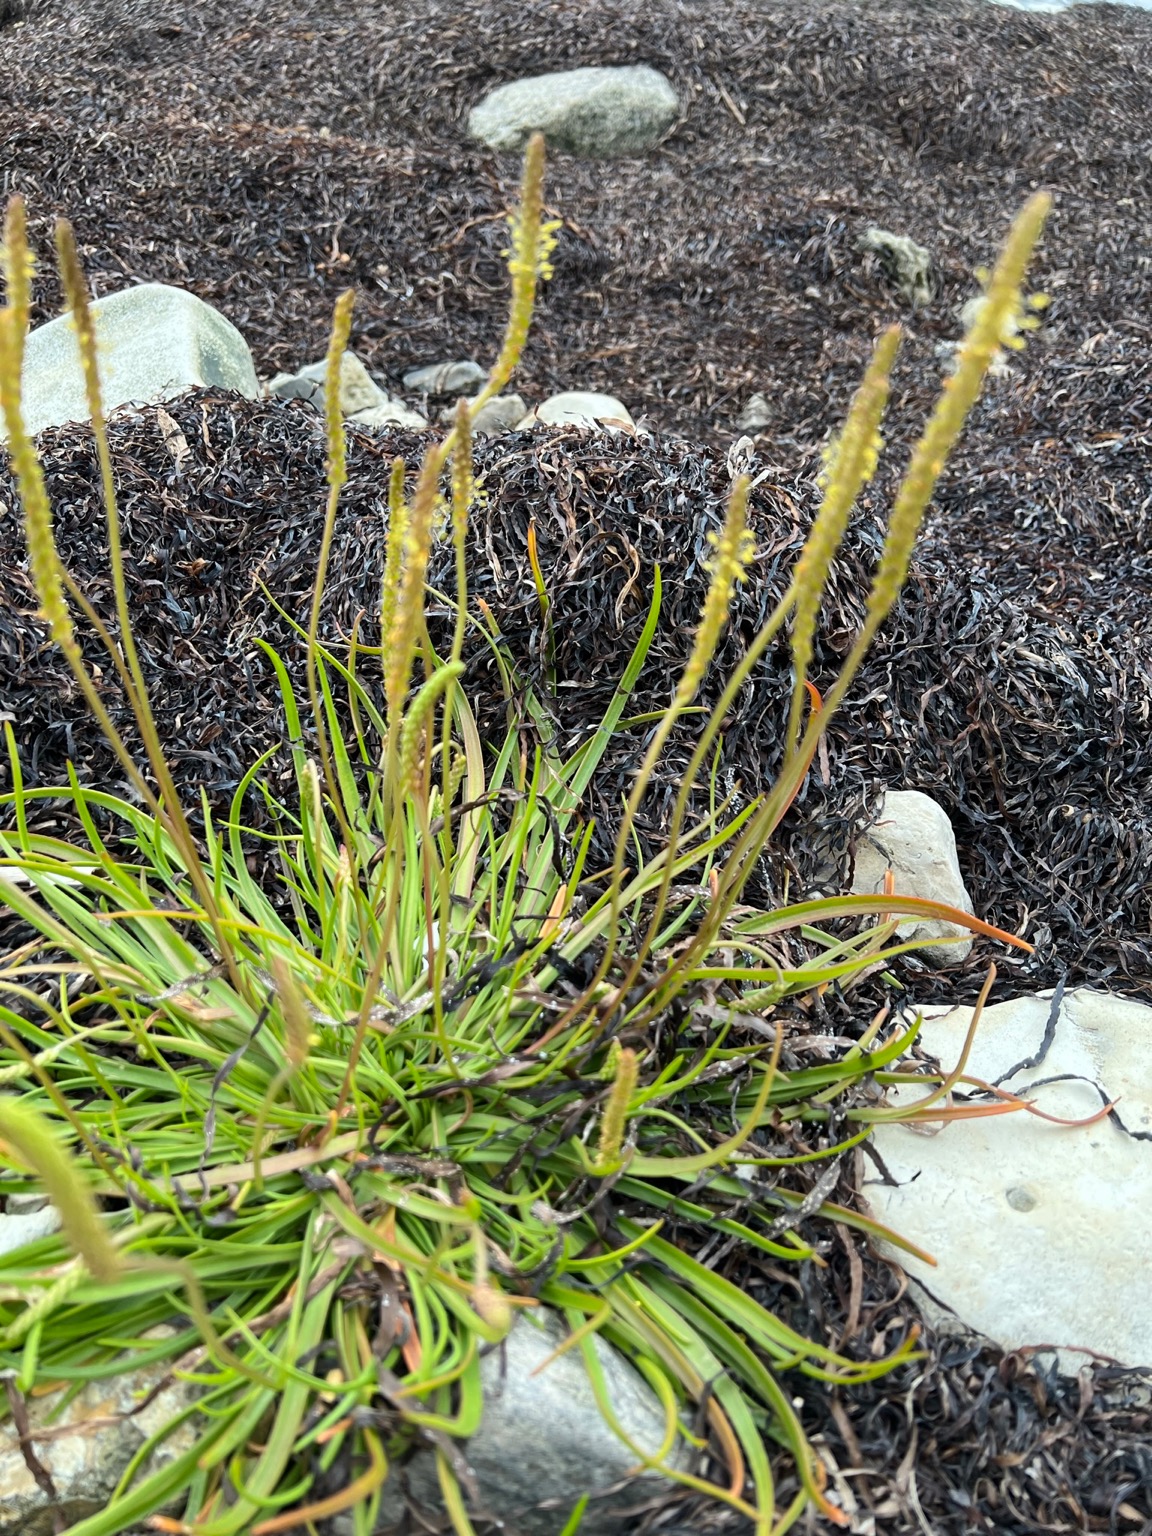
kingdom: Plantae
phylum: Tracheophyta
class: Magnoliopsida
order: Lamiales
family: Plantaginaceae
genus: Plantago
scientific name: Plantago maritima
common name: Strand-vejbred
